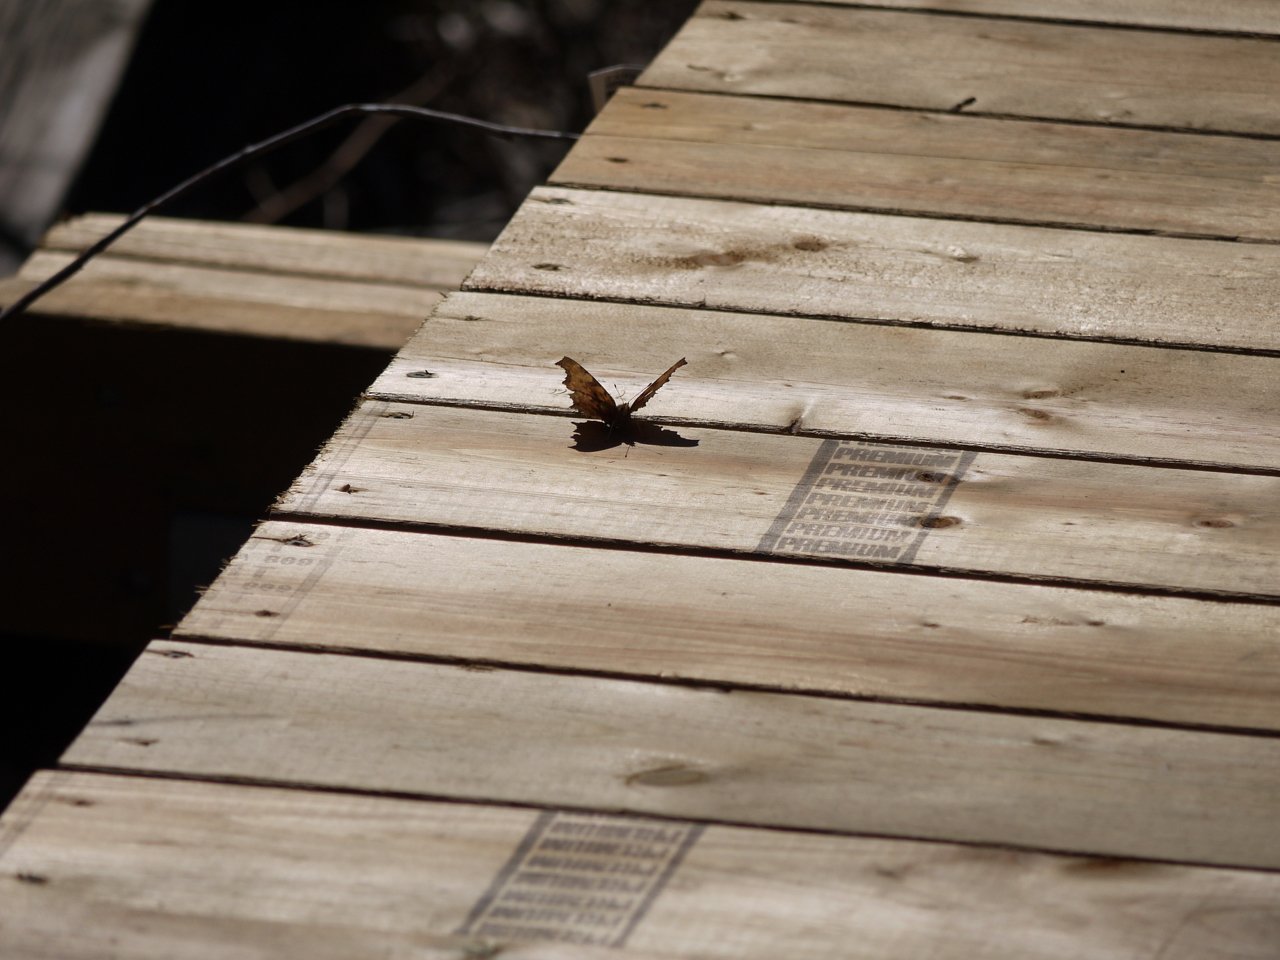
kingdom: Animalia
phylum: Arthropoda
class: Insecta
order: Lepidoptera
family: Nymphalidae
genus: Polygonia
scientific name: Polygonia
